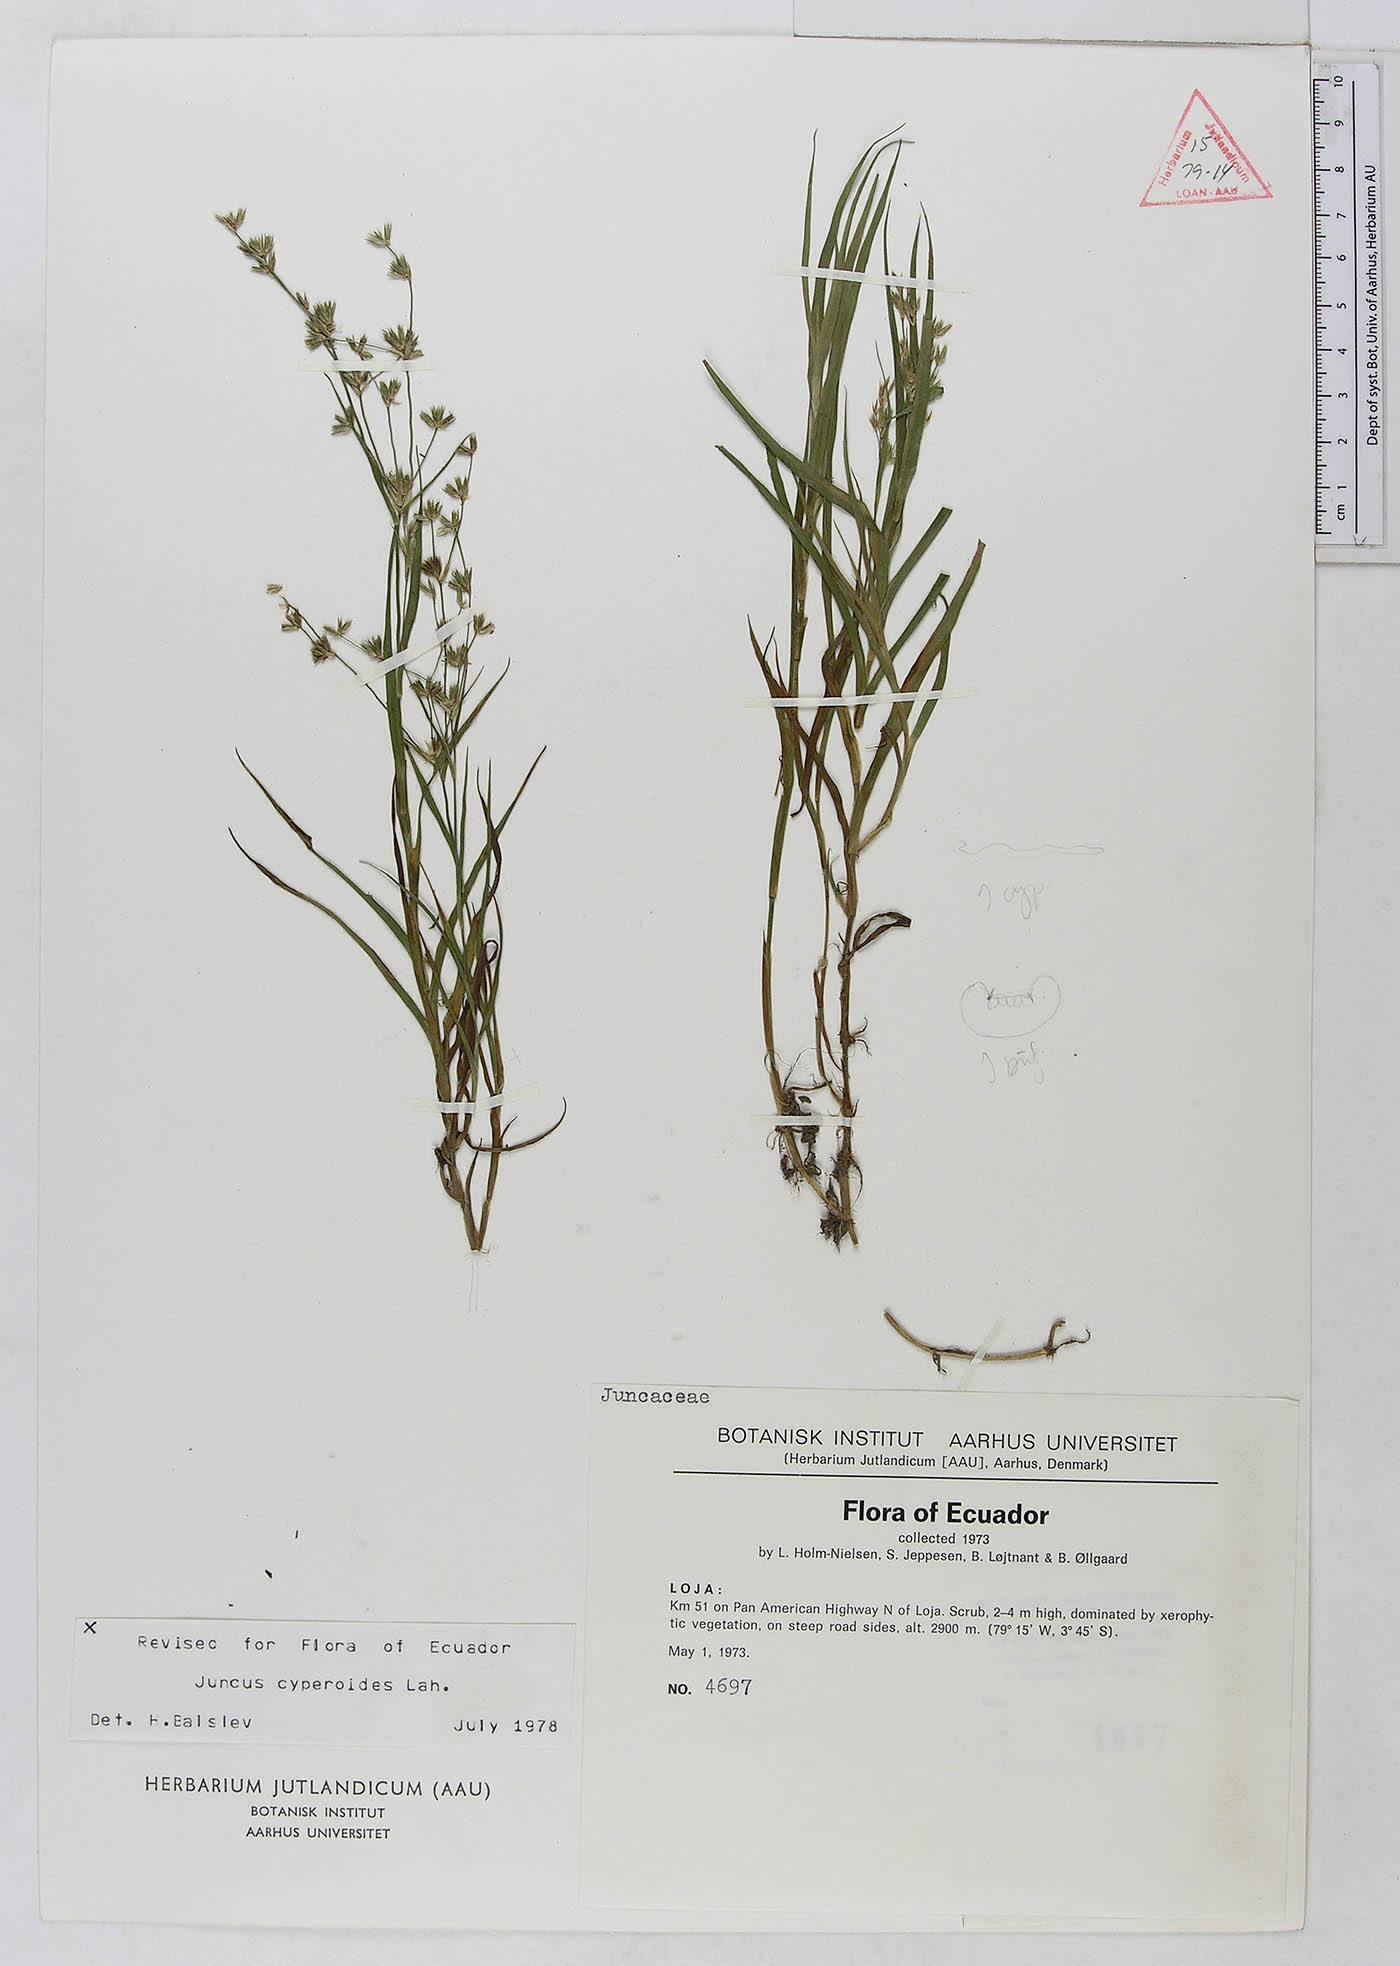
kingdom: Plantae
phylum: Tracheophyta
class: Liliopsida
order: Poales
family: Juncaceae
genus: Juncus
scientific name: Juncus cyperoides
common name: Forbestown rush
